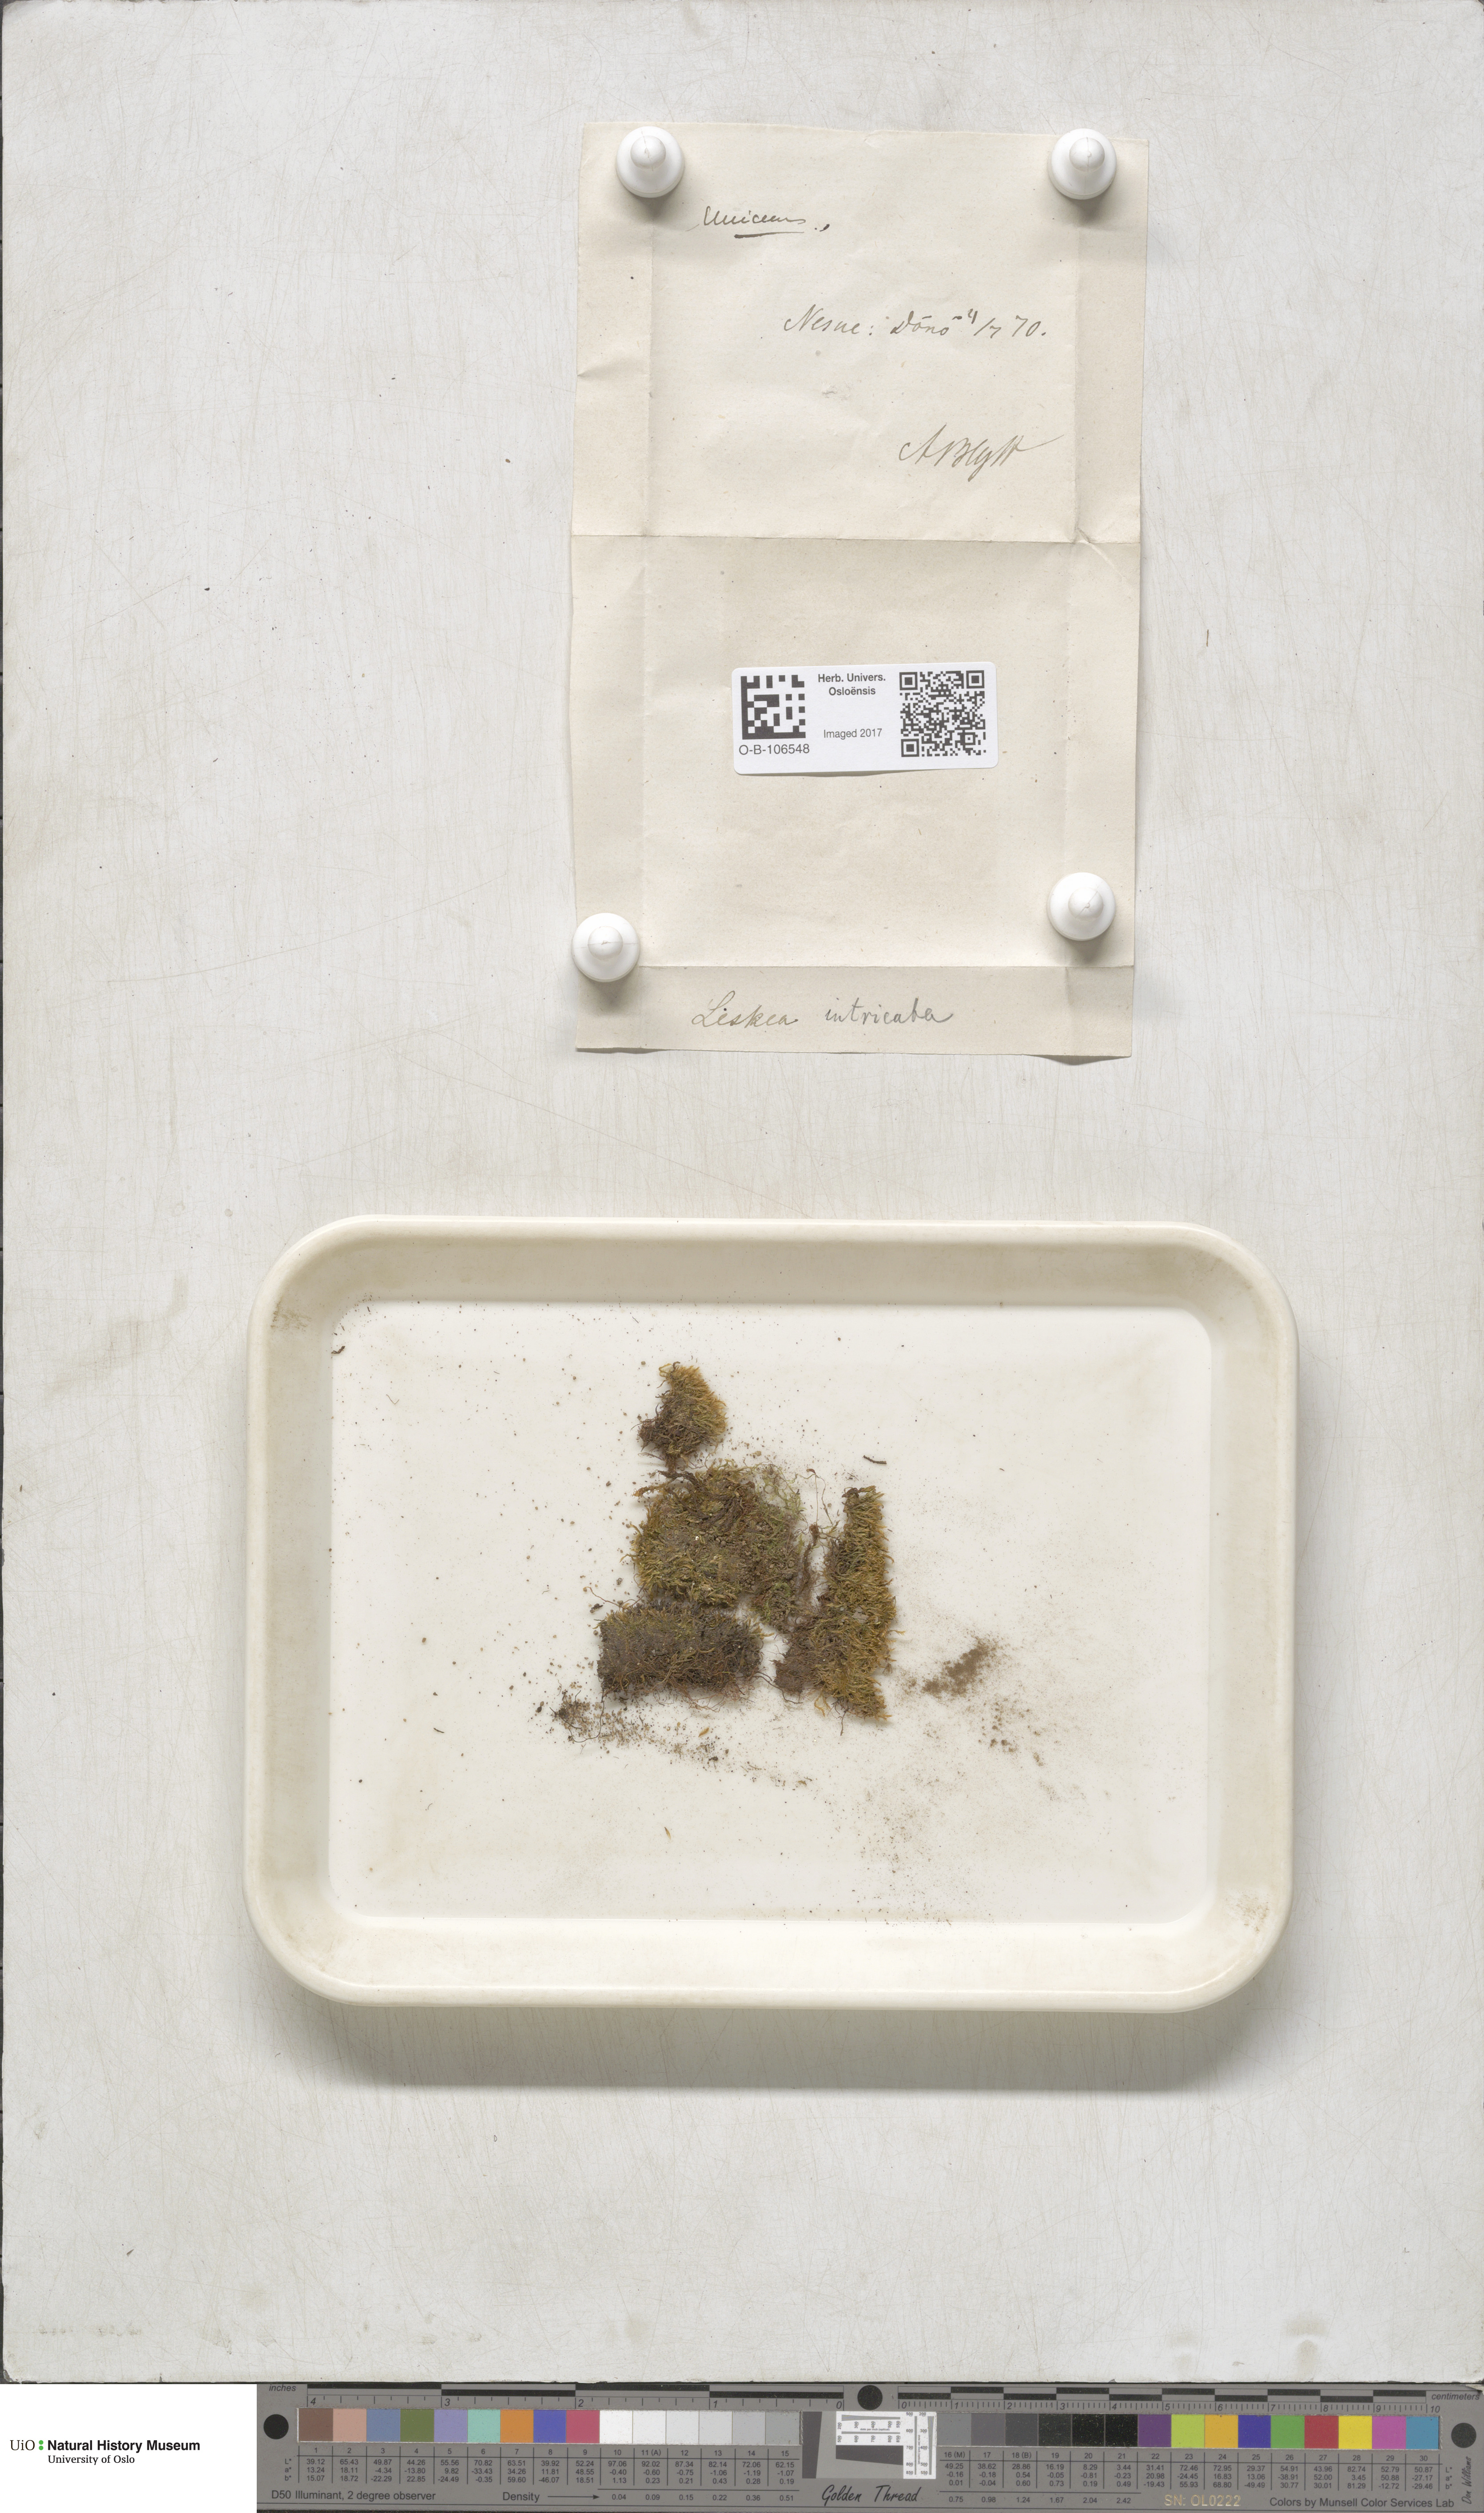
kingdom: Plantae
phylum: Bryophyta
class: Bryopsida
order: Hypnales
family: Plagiotheciaceae
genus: Orthothecium
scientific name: Orthothecium intricatum
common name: Fine-leaved erect-capsule moss
